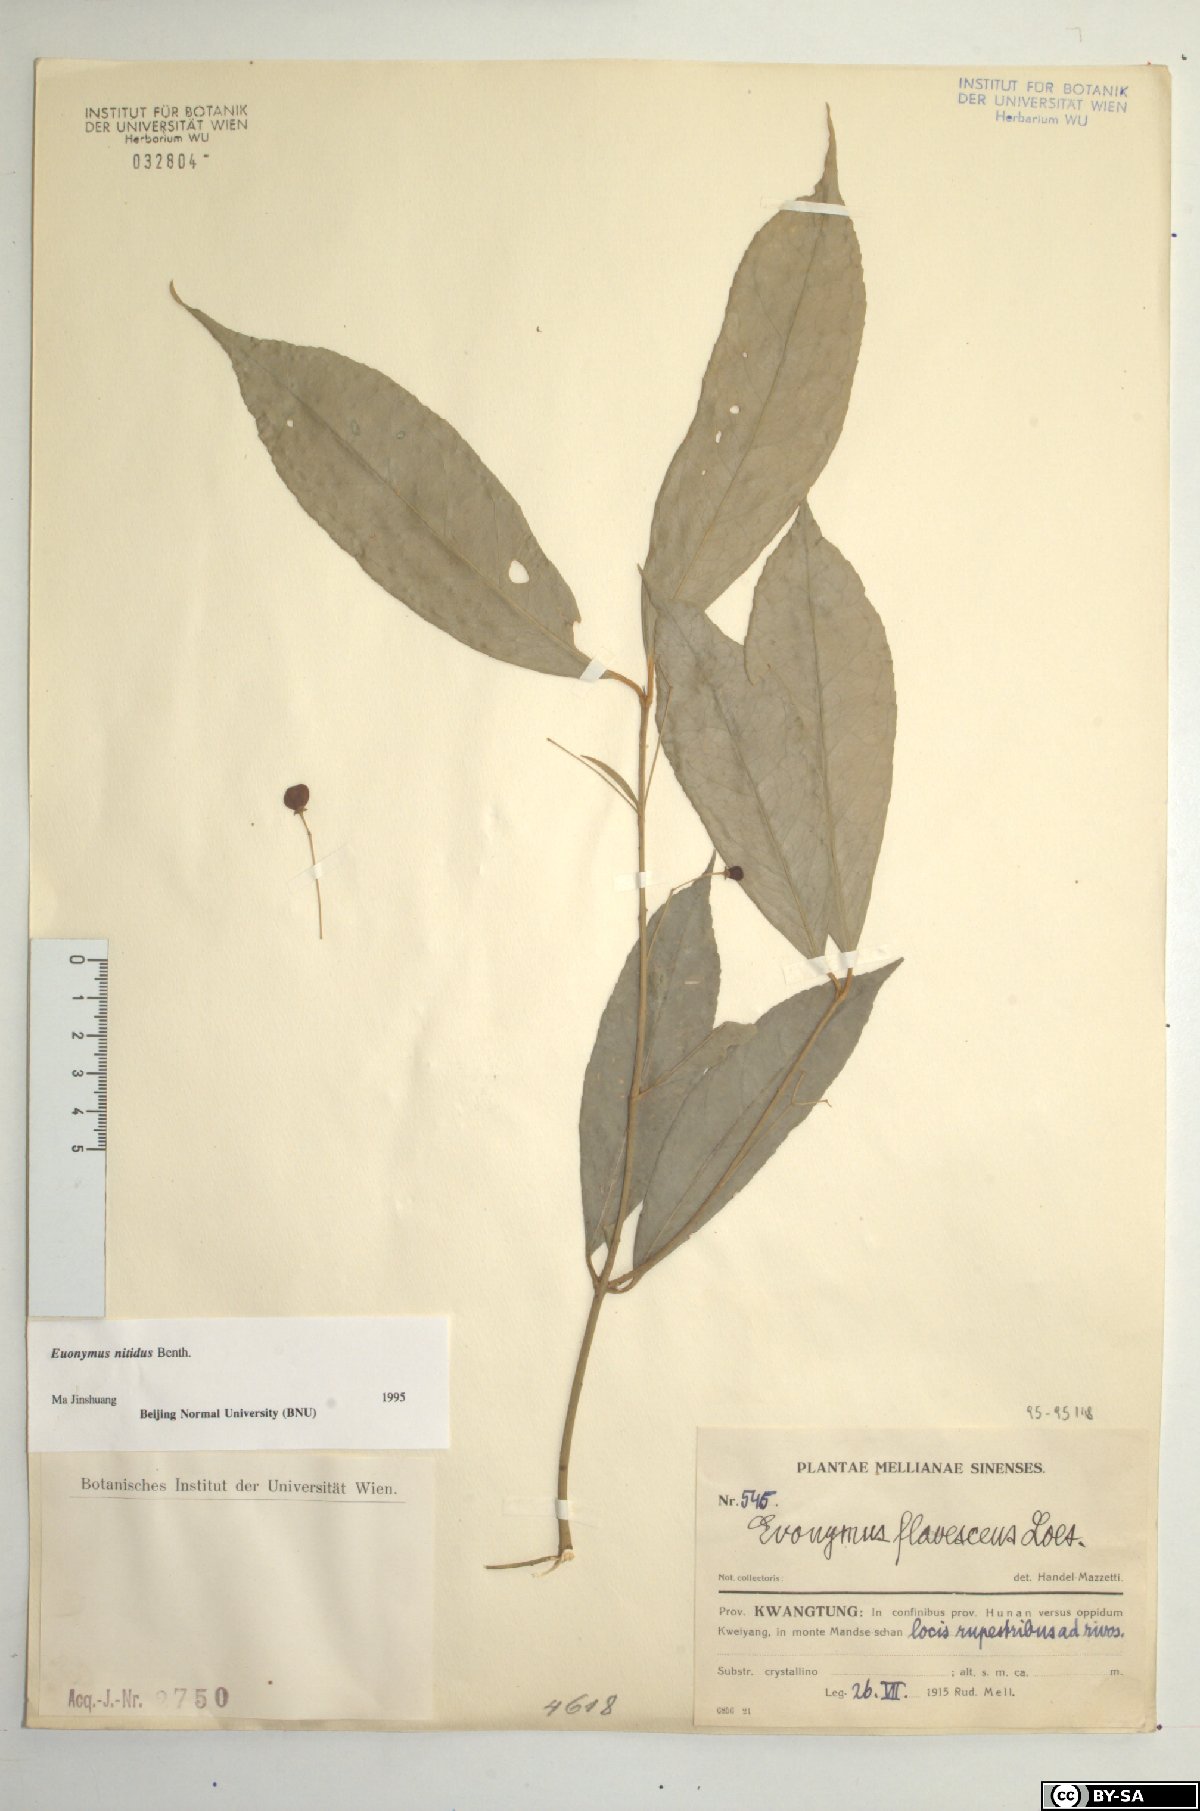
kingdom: Plantae
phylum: Tracheophyta
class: Magnoliopsida
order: Celastrales
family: Celastraceae
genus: Euonymus
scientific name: Euonymus nitidus
